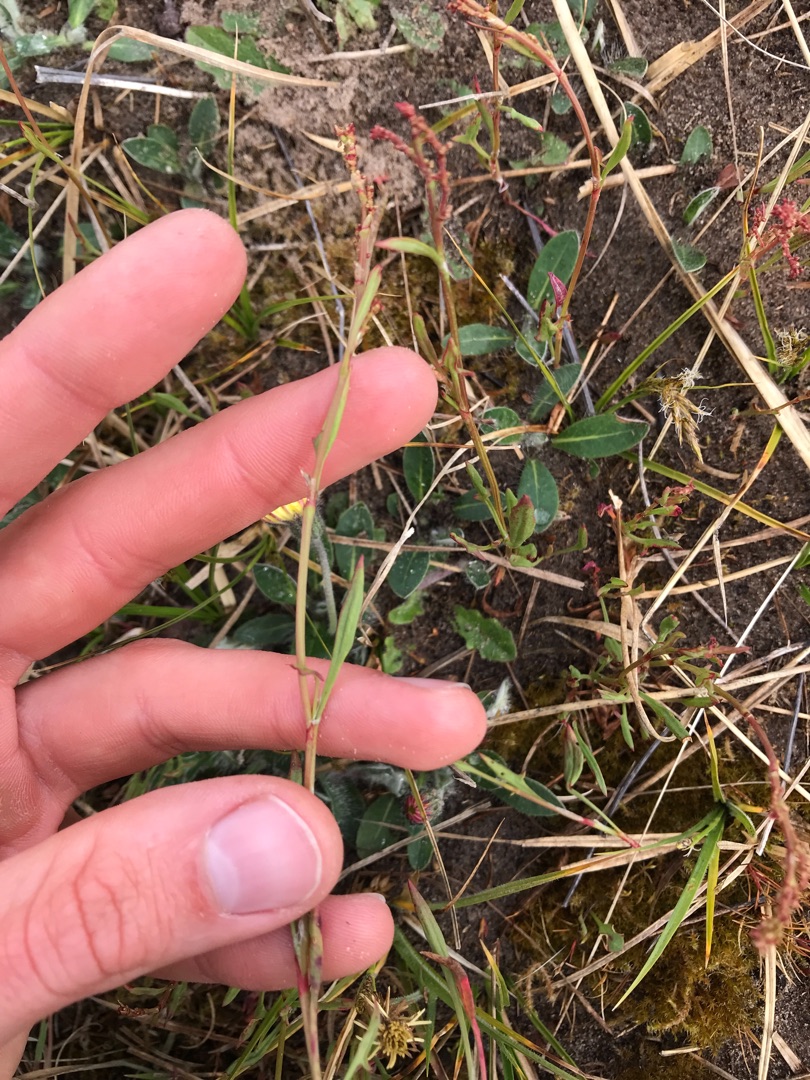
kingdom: Plantae
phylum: Tracheophyta
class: Magnoliopsida
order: Caryophyllales
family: Polygonaceae
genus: Rumex
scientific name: Rumex acetosella
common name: Rødknæ
